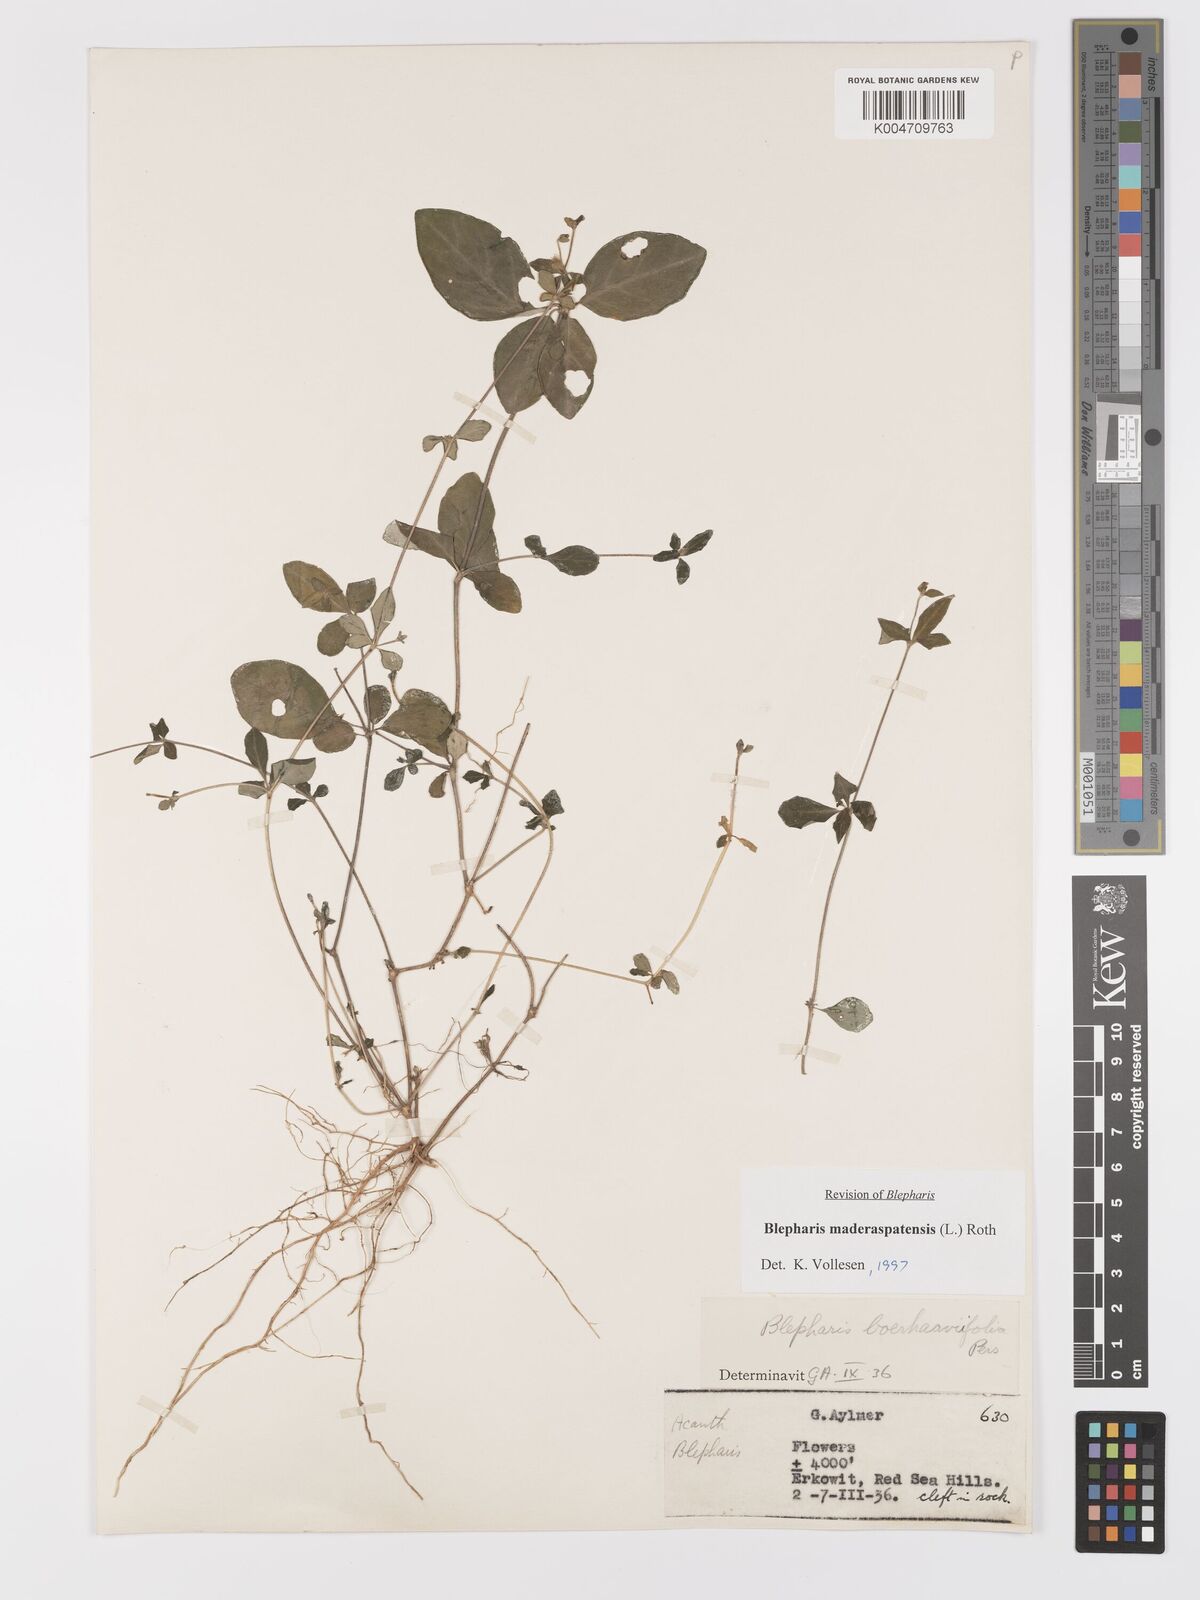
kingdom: Plantae
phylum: Tracheophyta
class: Magnoliopsida
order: Lamiales
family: Acanthaceae
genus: Blepharis
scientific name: Blepharis maderaspatensis
